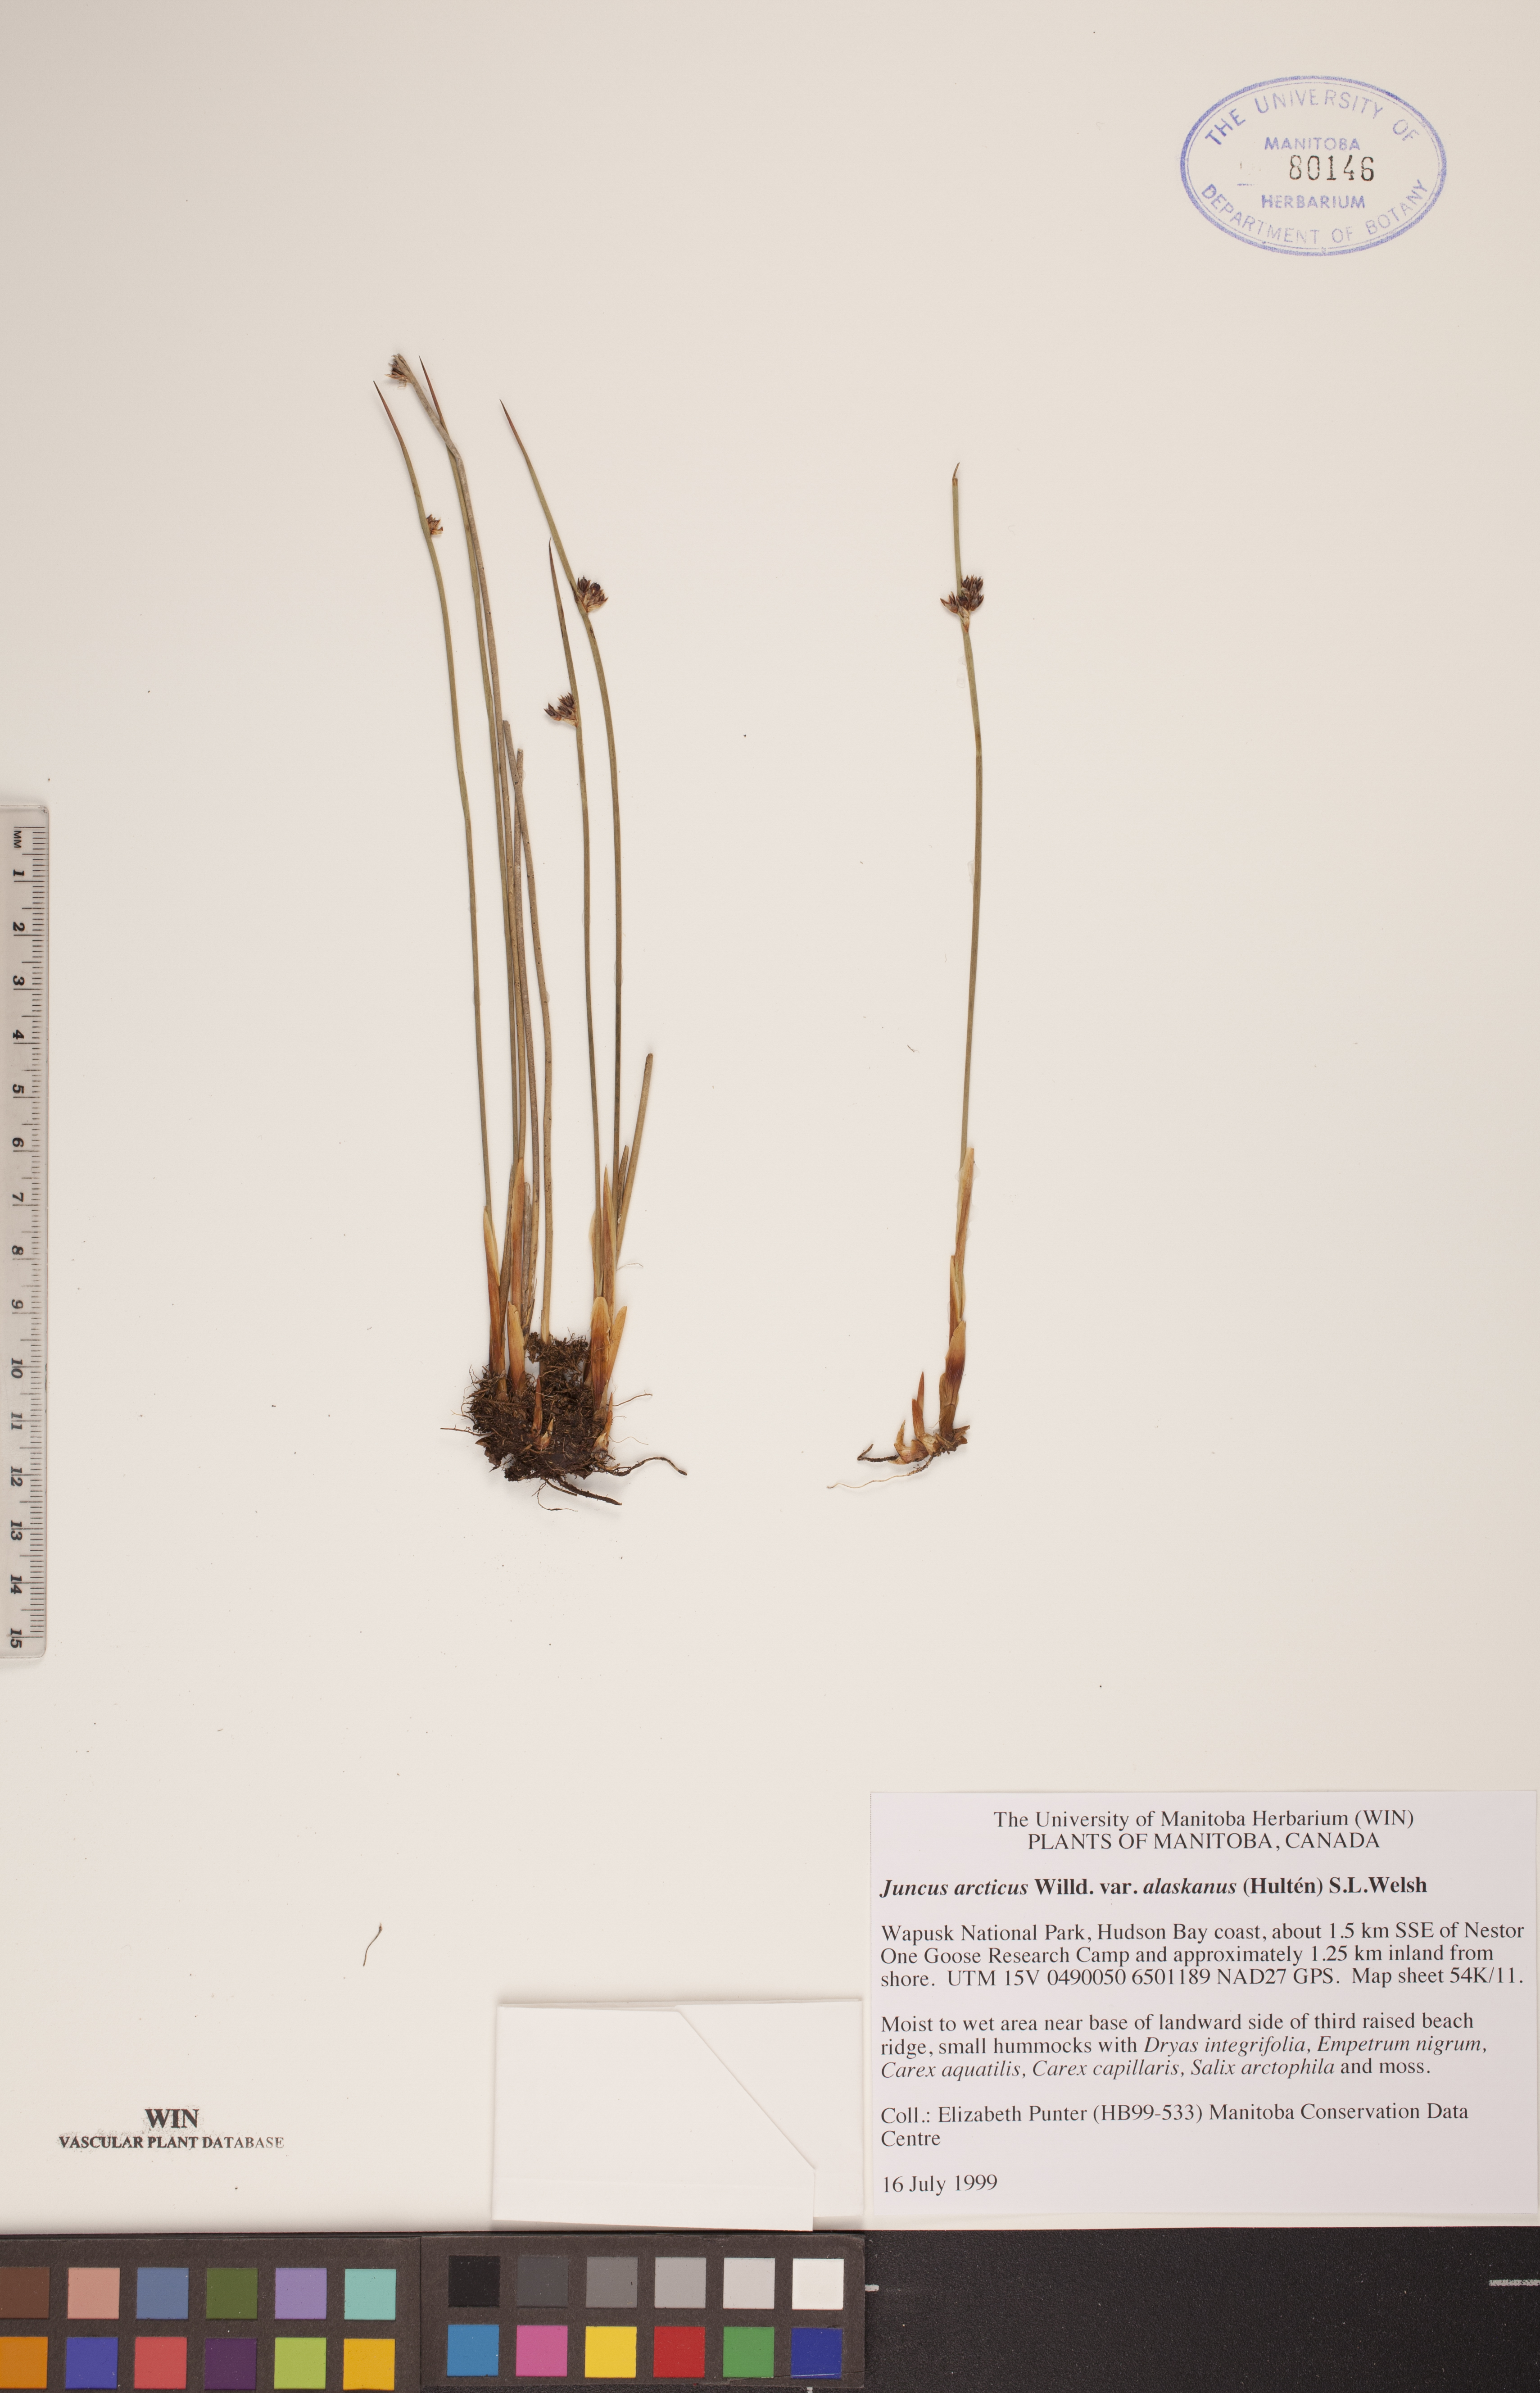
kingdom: Plantae
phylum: Tracheophyta
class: Liliopsida
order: Poales
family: Juncaceae
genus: Juncus
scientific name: Juncus arcticus
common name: Arctic rush
